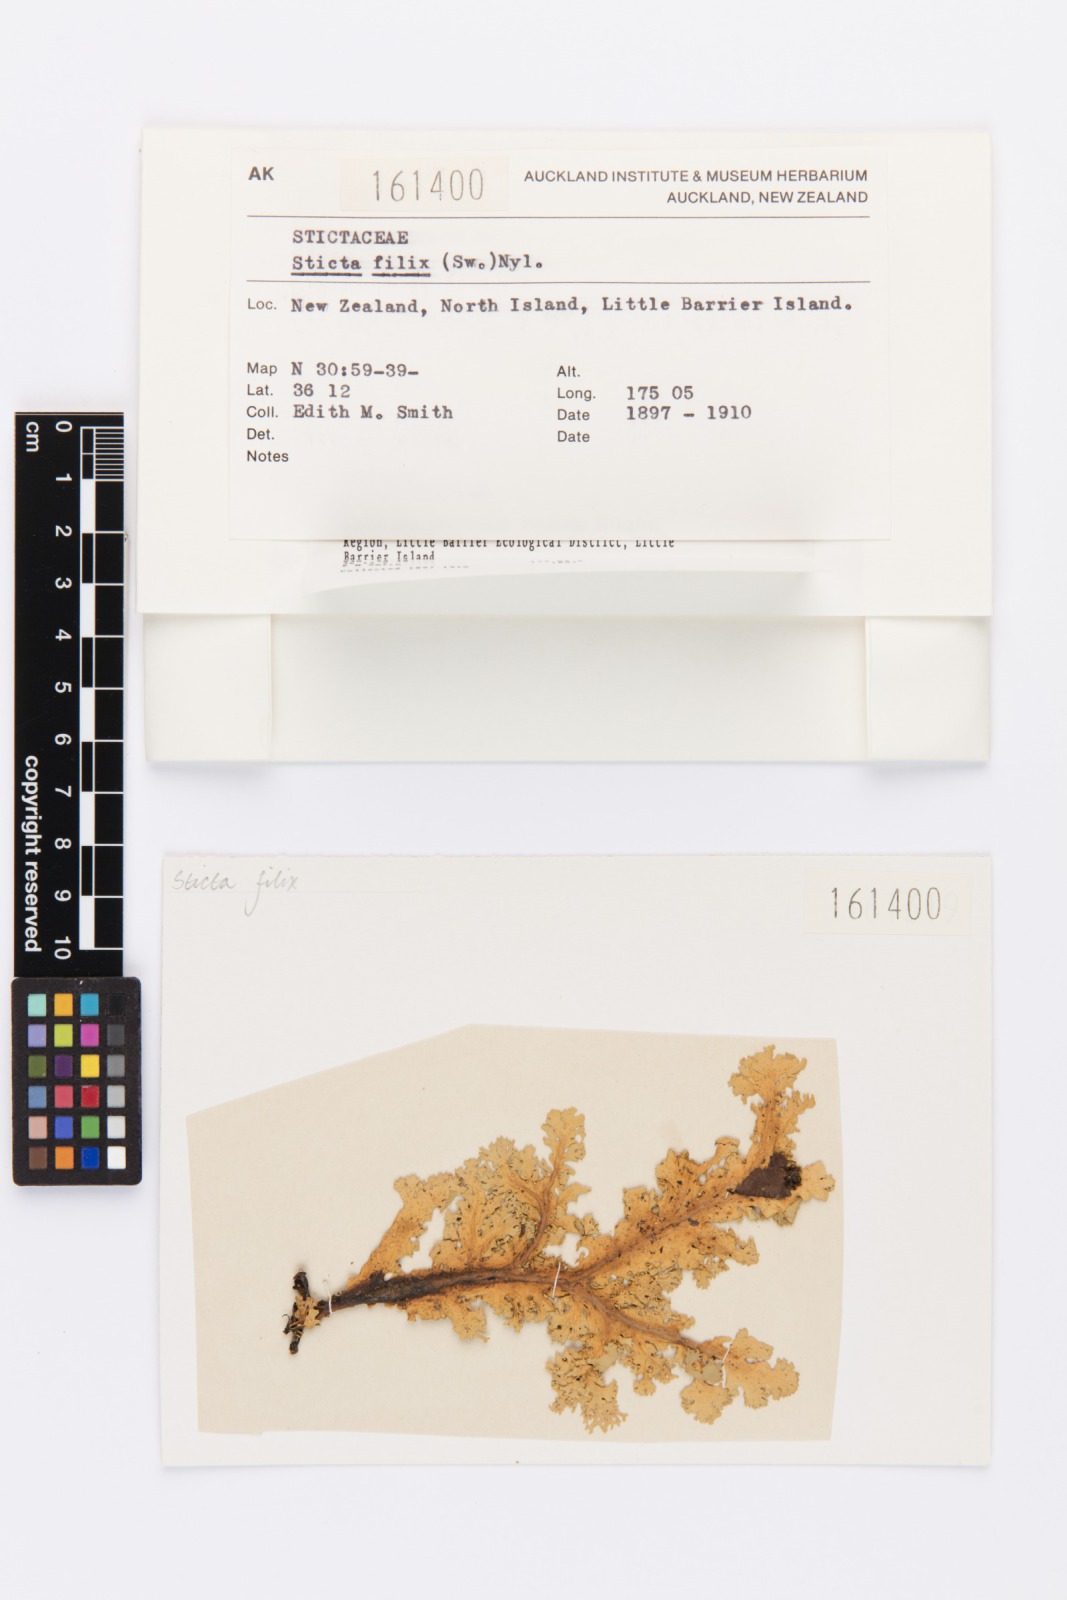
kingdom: Fungi
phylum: Ascomycota
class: Lecanoromycetes
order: Peltigerales
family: Lobariaceae
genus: Sticta
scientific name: Sticta filix
